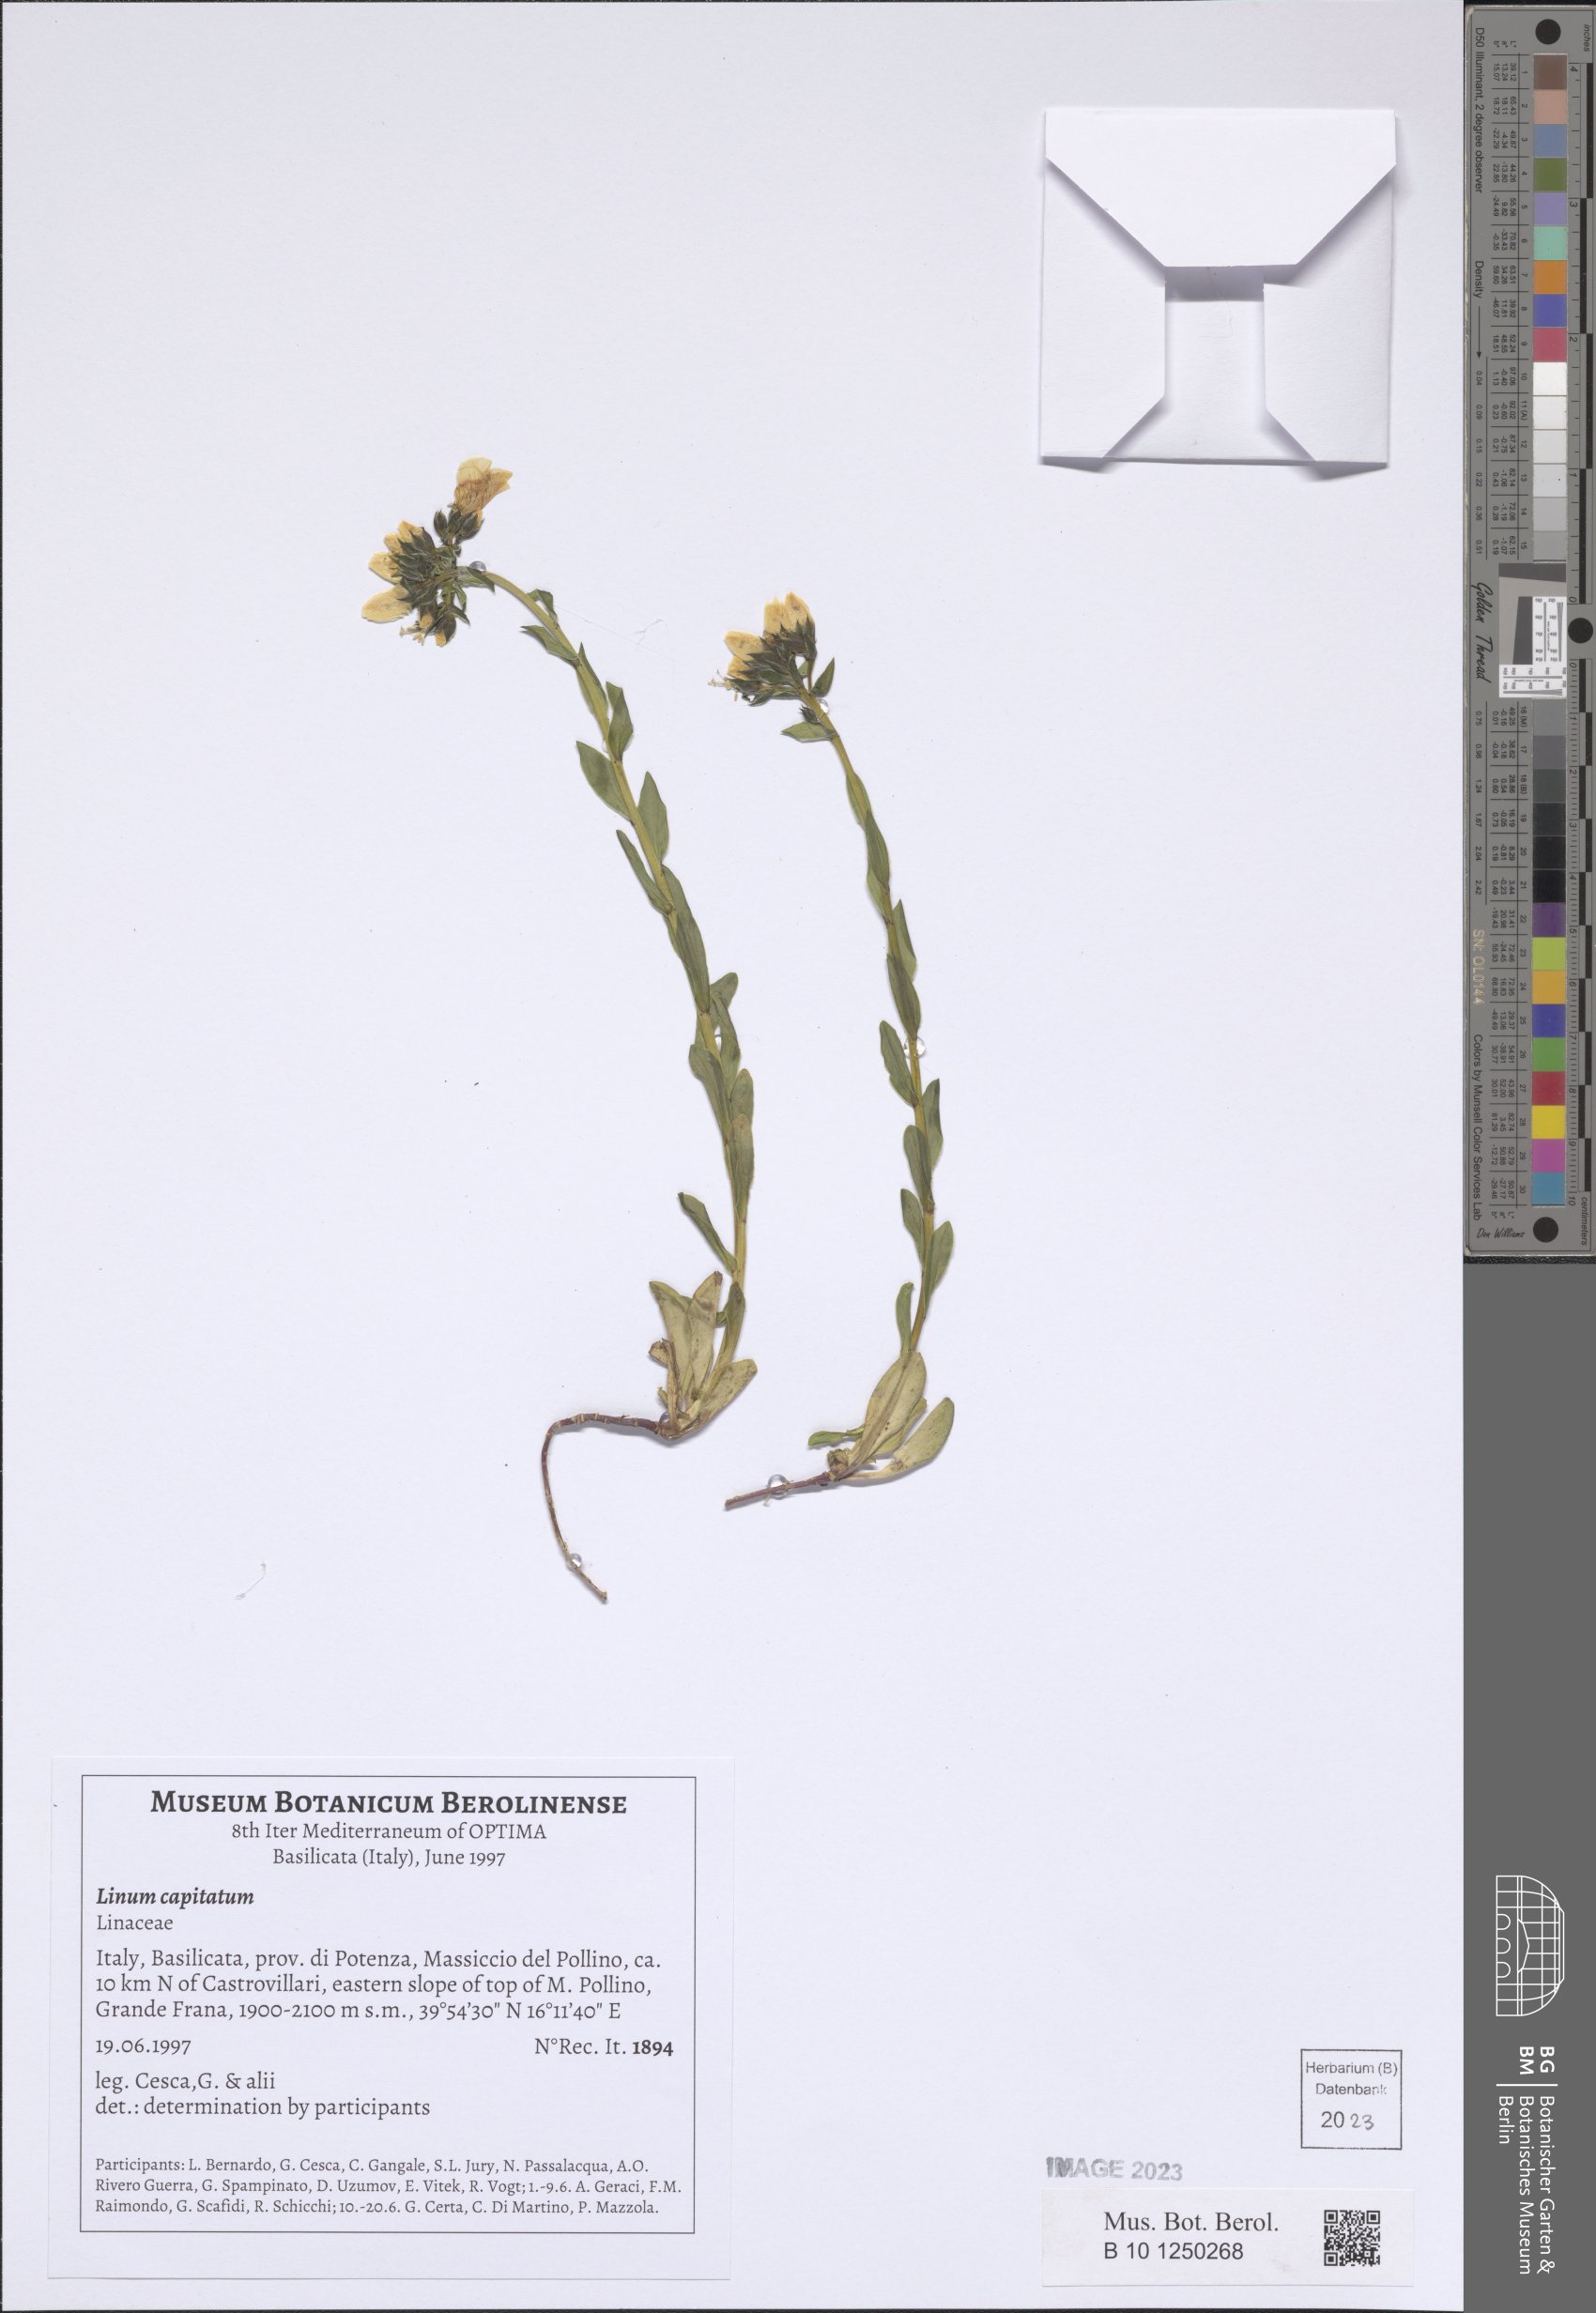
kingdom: Plantae
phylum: Tracheophyta
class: Magnoliopsida
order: Malpighiales
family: Linaceae
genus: Linum
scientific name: Linum capitatum
